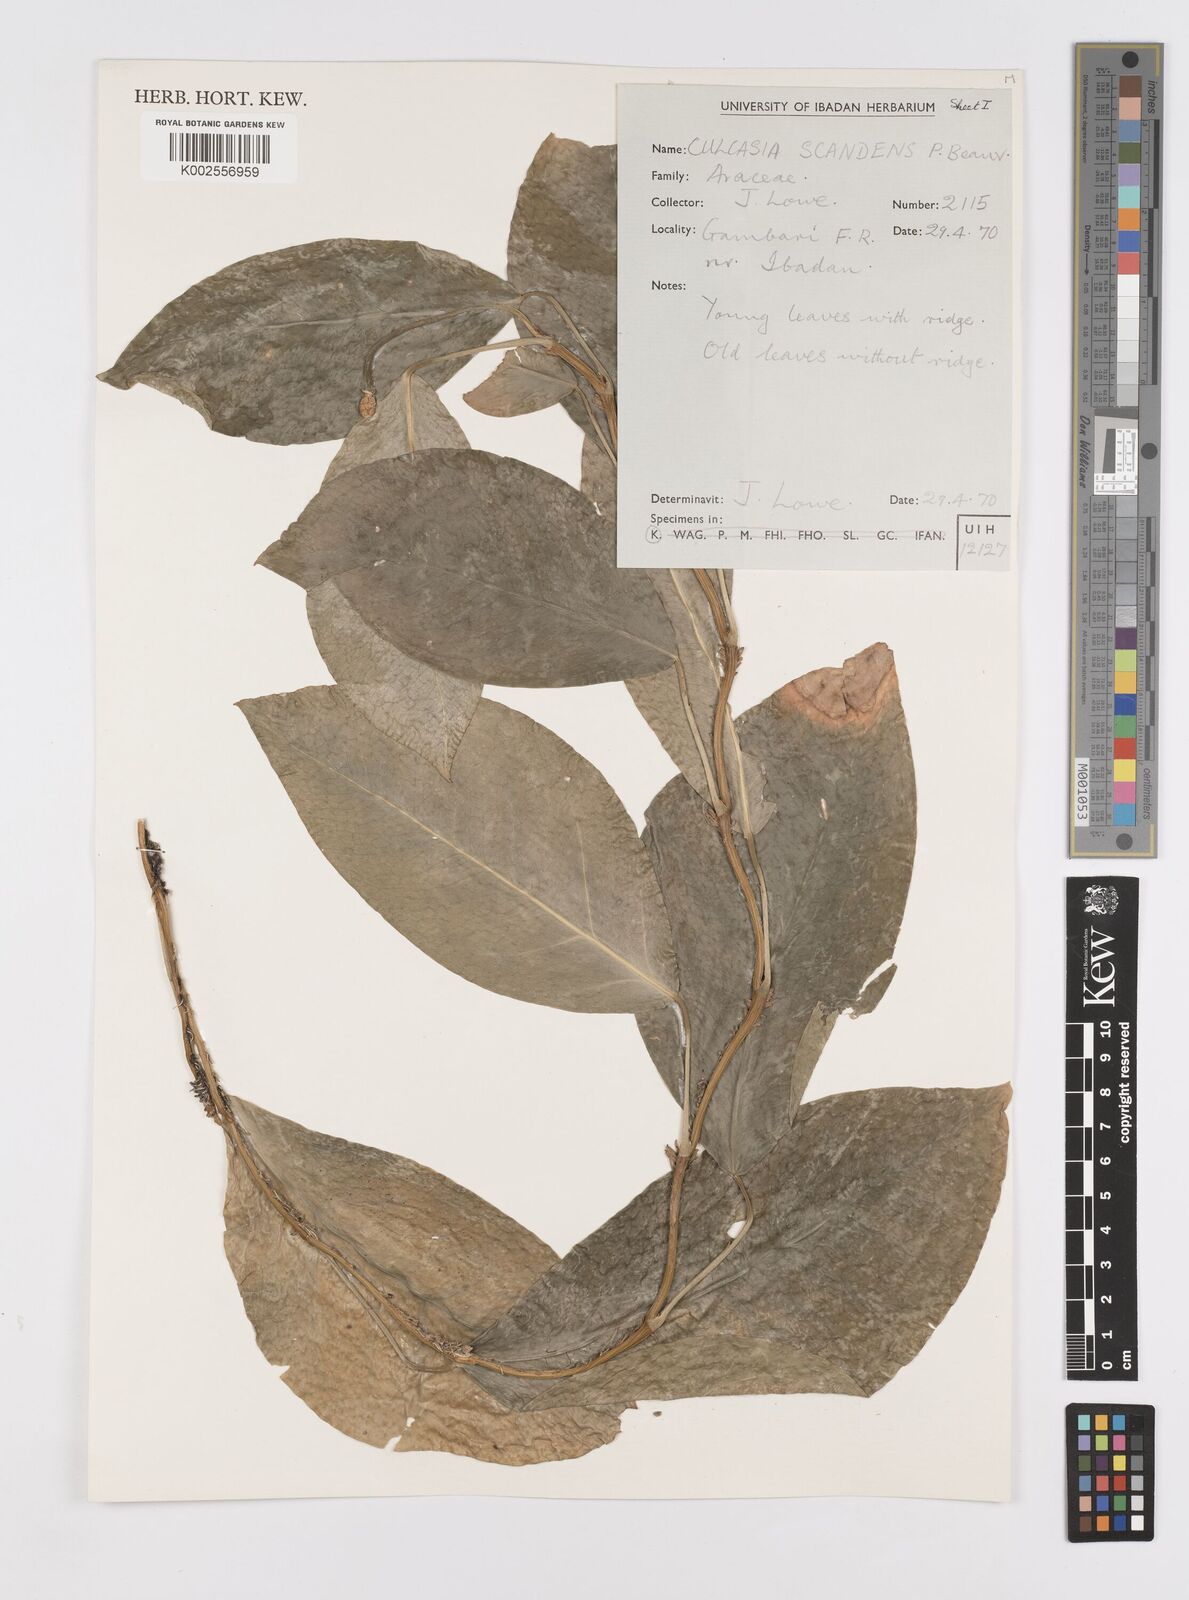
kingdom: Plantae
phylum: Tracheophyta
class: Liliopsida
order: Alismatales
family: Araceae
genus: Culcasia
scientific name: Culcasia scandens
